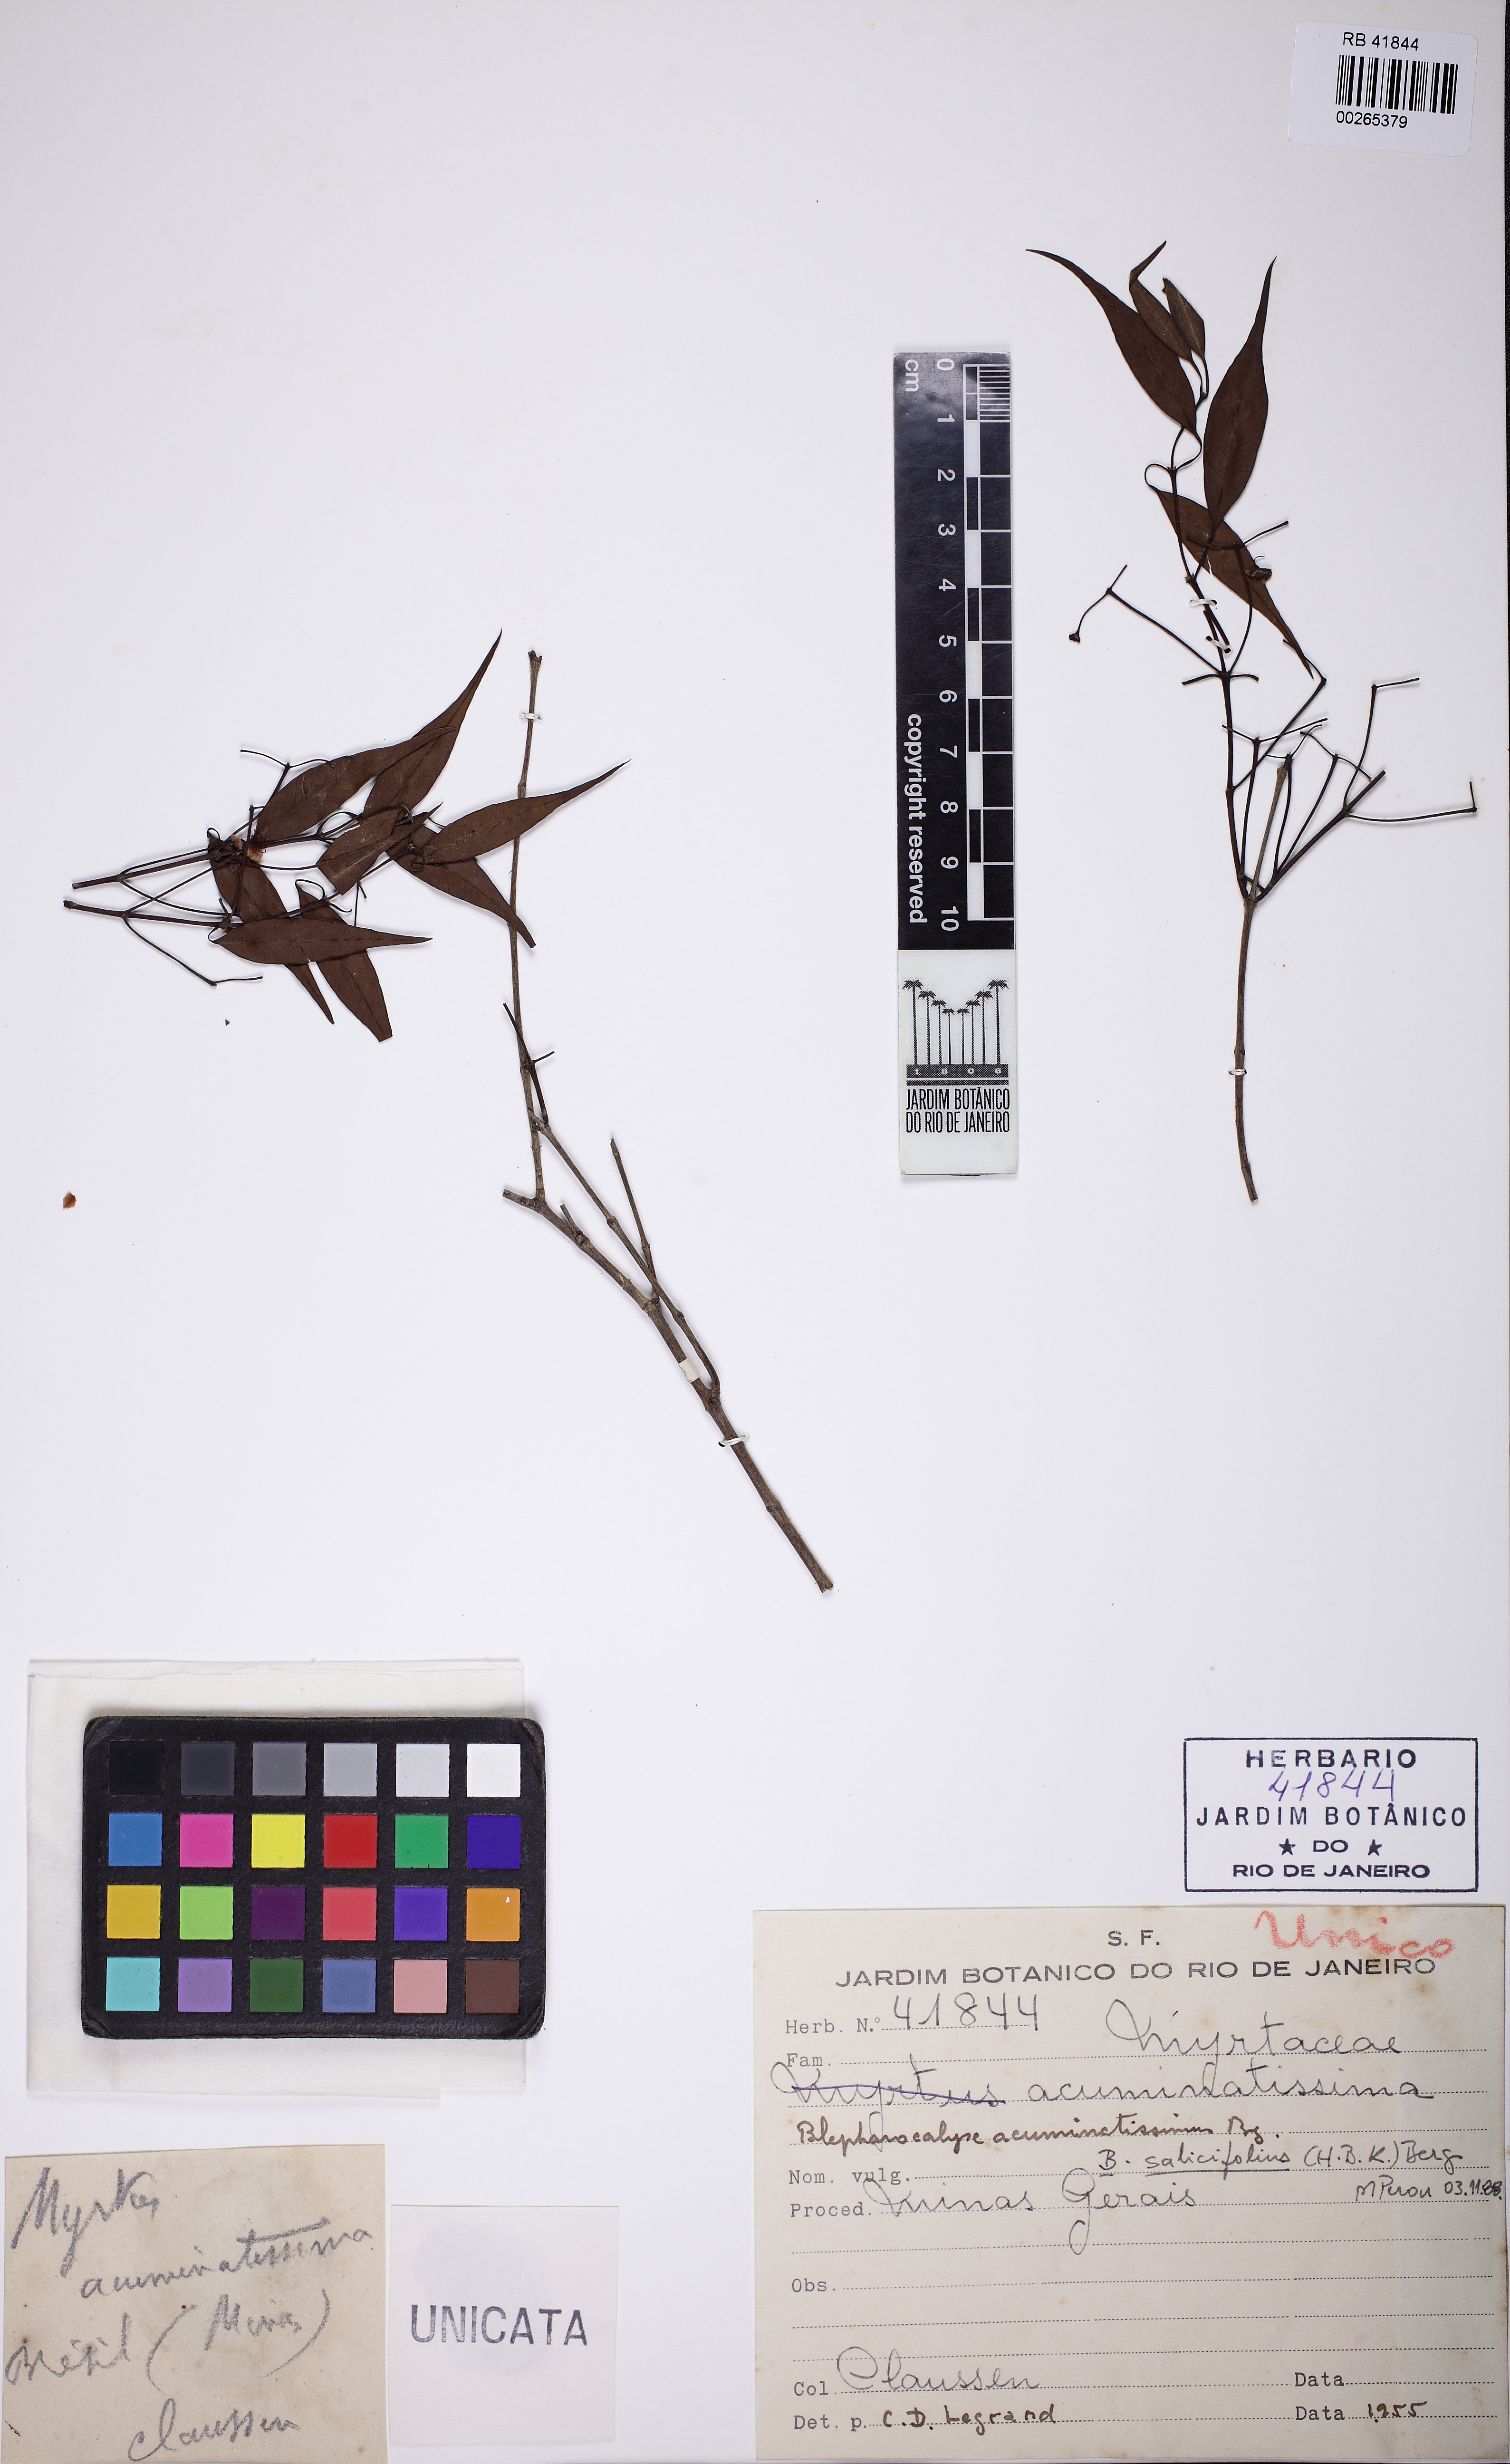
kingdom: Plantae
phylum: Tracheophyta
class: Magnoliopsida
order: Myrtales
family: Myrtaceae
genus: Blepharocalyx
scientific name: Blepharocalyx salicifolius
